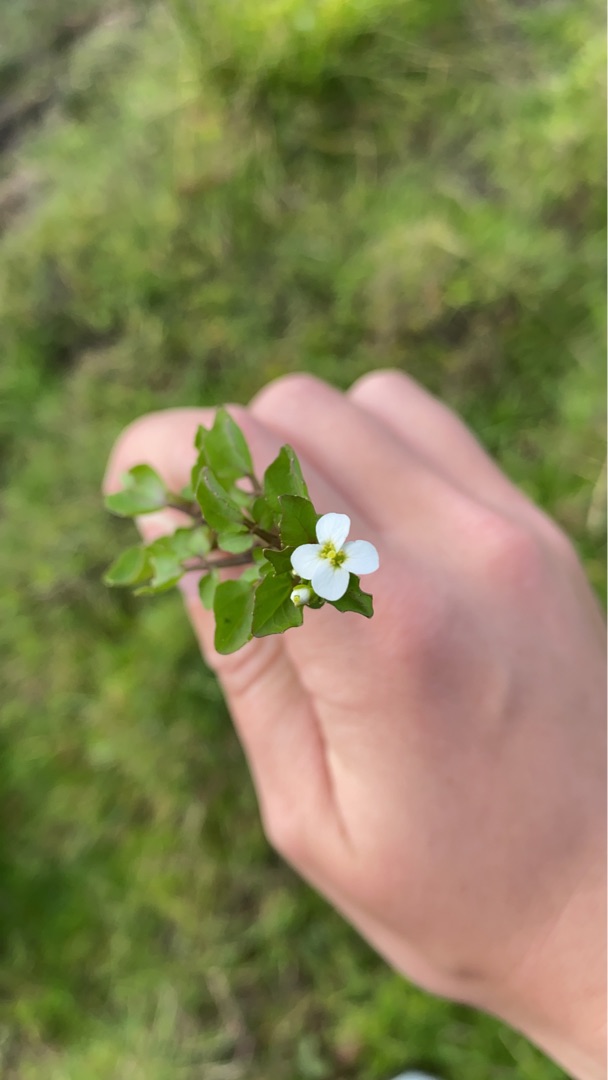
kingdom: Plantae
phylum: Tracheophyta
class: Magnoliopsida
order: Brassicales
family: Brassicaceae
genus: Nasturtium
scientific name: Nasturtium
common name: Brøndkarseslægten
